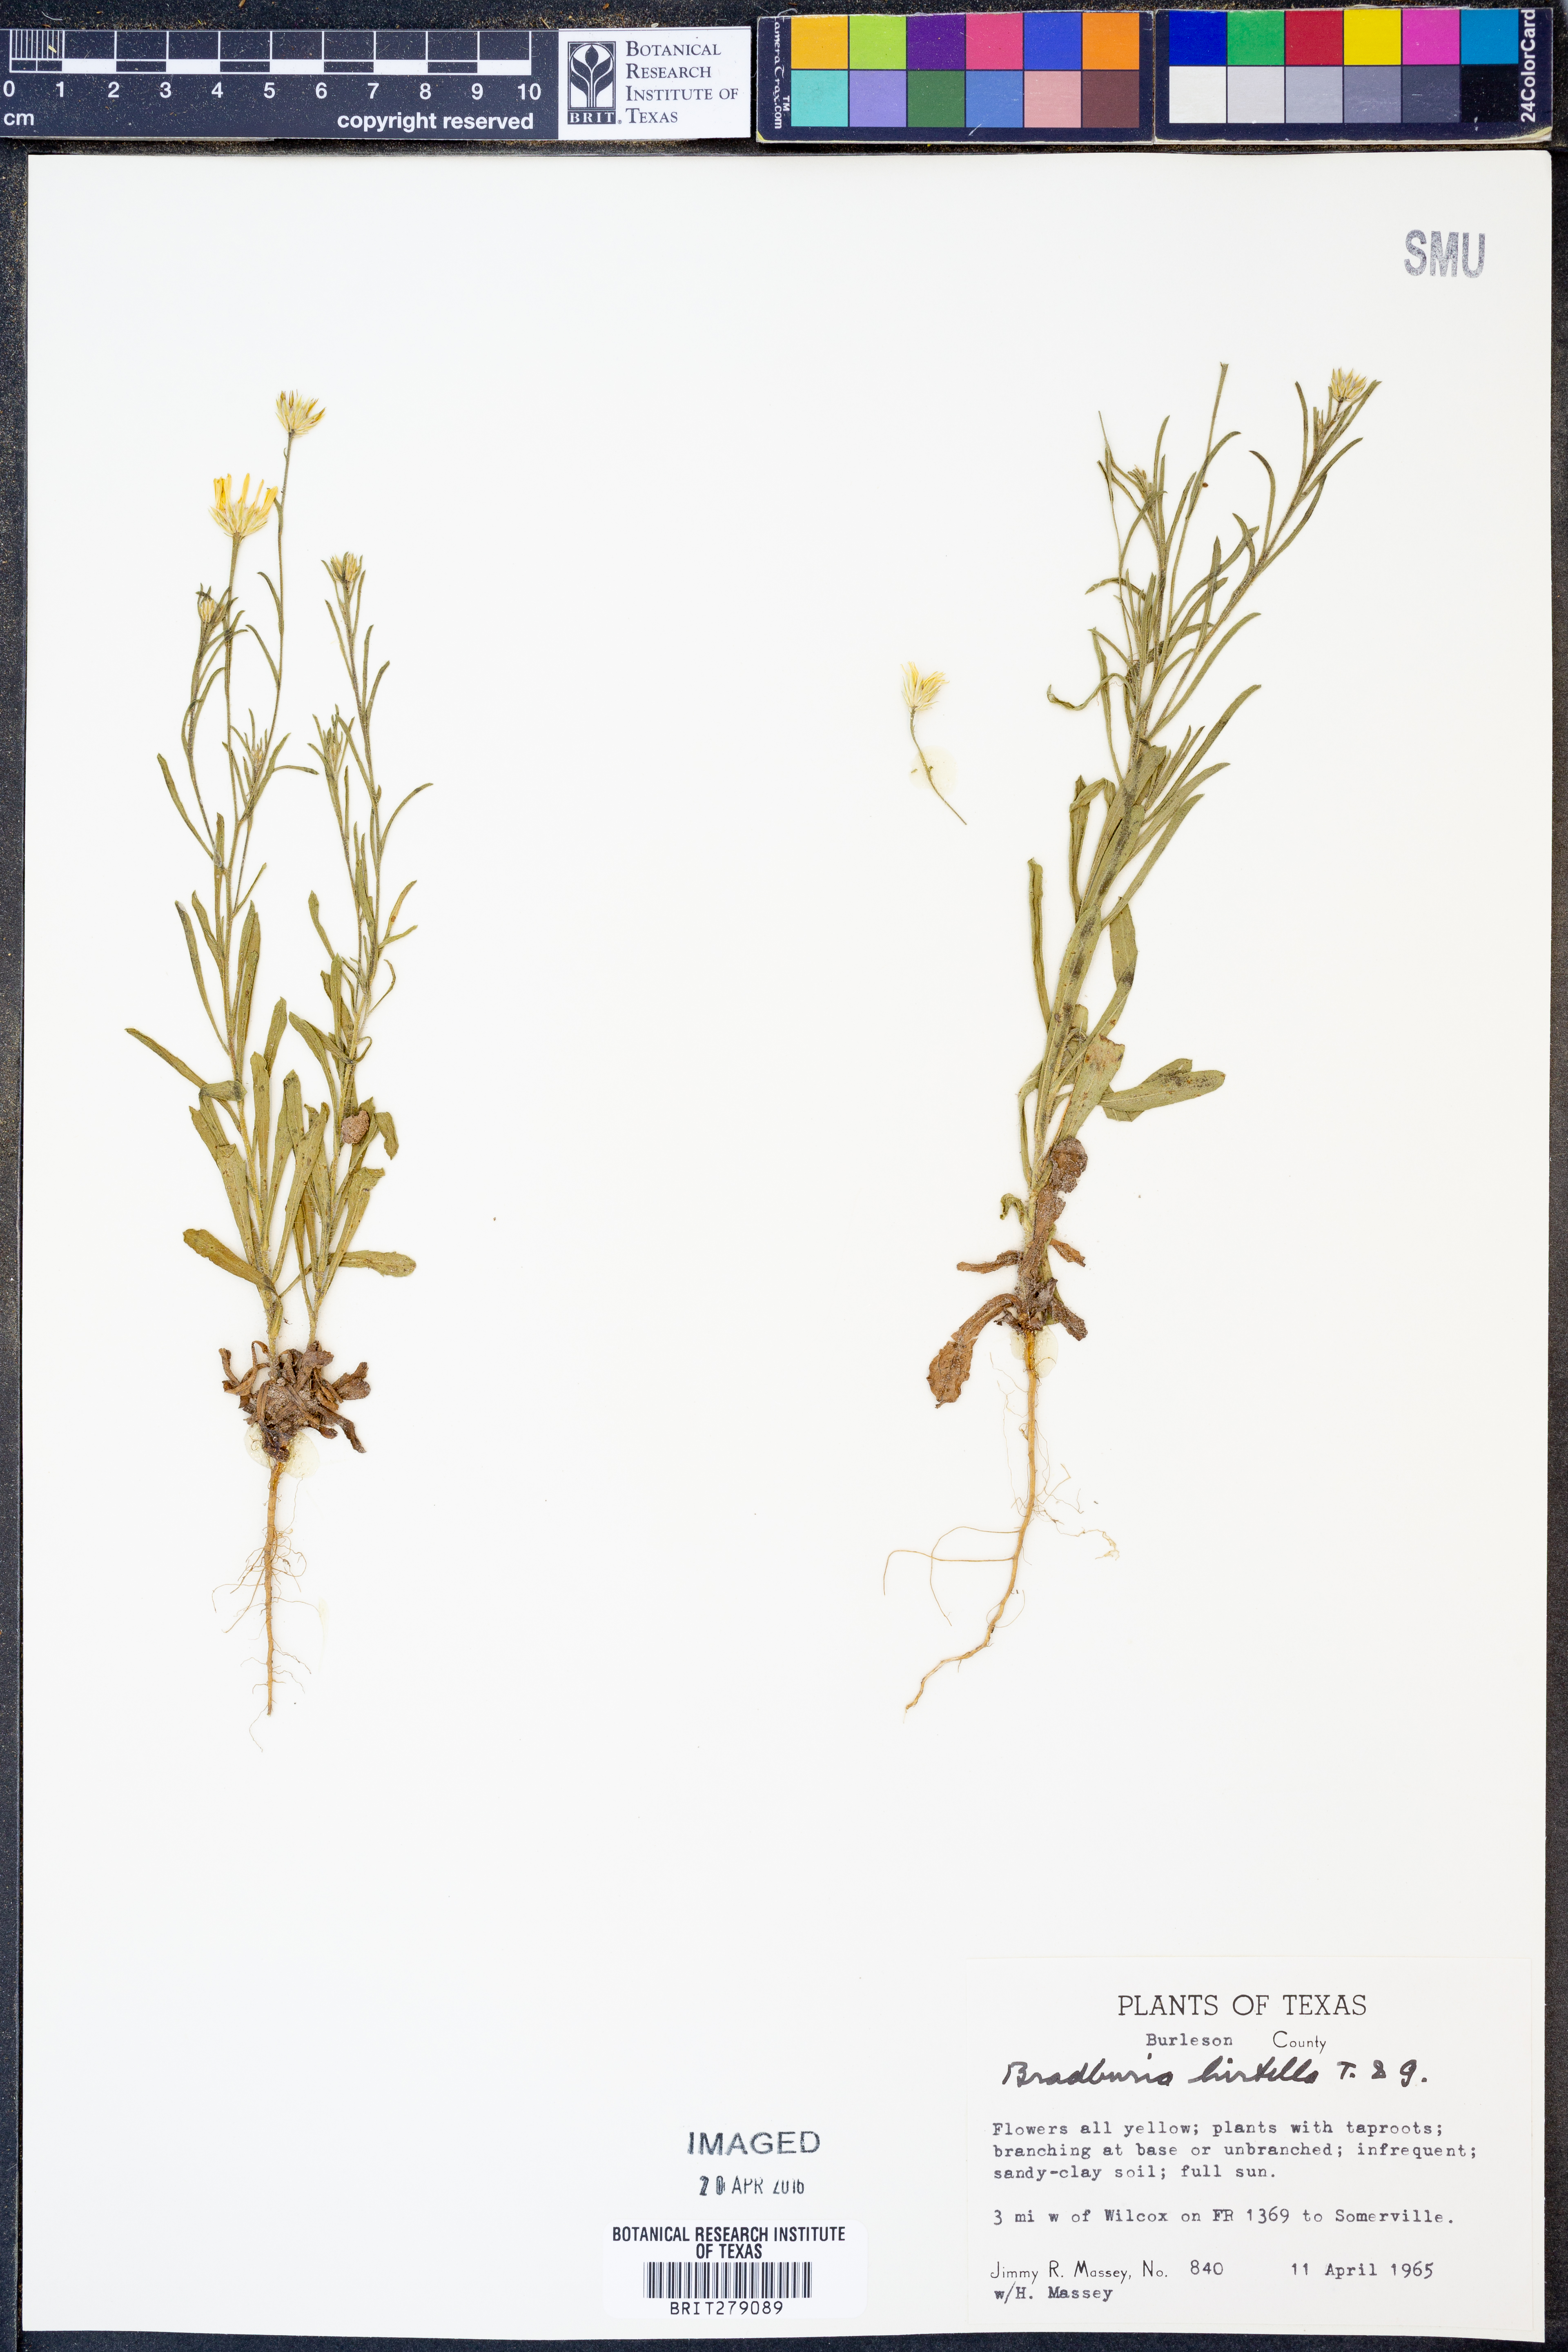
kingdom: Plantae
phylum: Tracheophyta
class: Magnoliopsida
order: Asterales
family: Asteraceae
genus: Bradburia
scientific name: Bradburia hirtella
